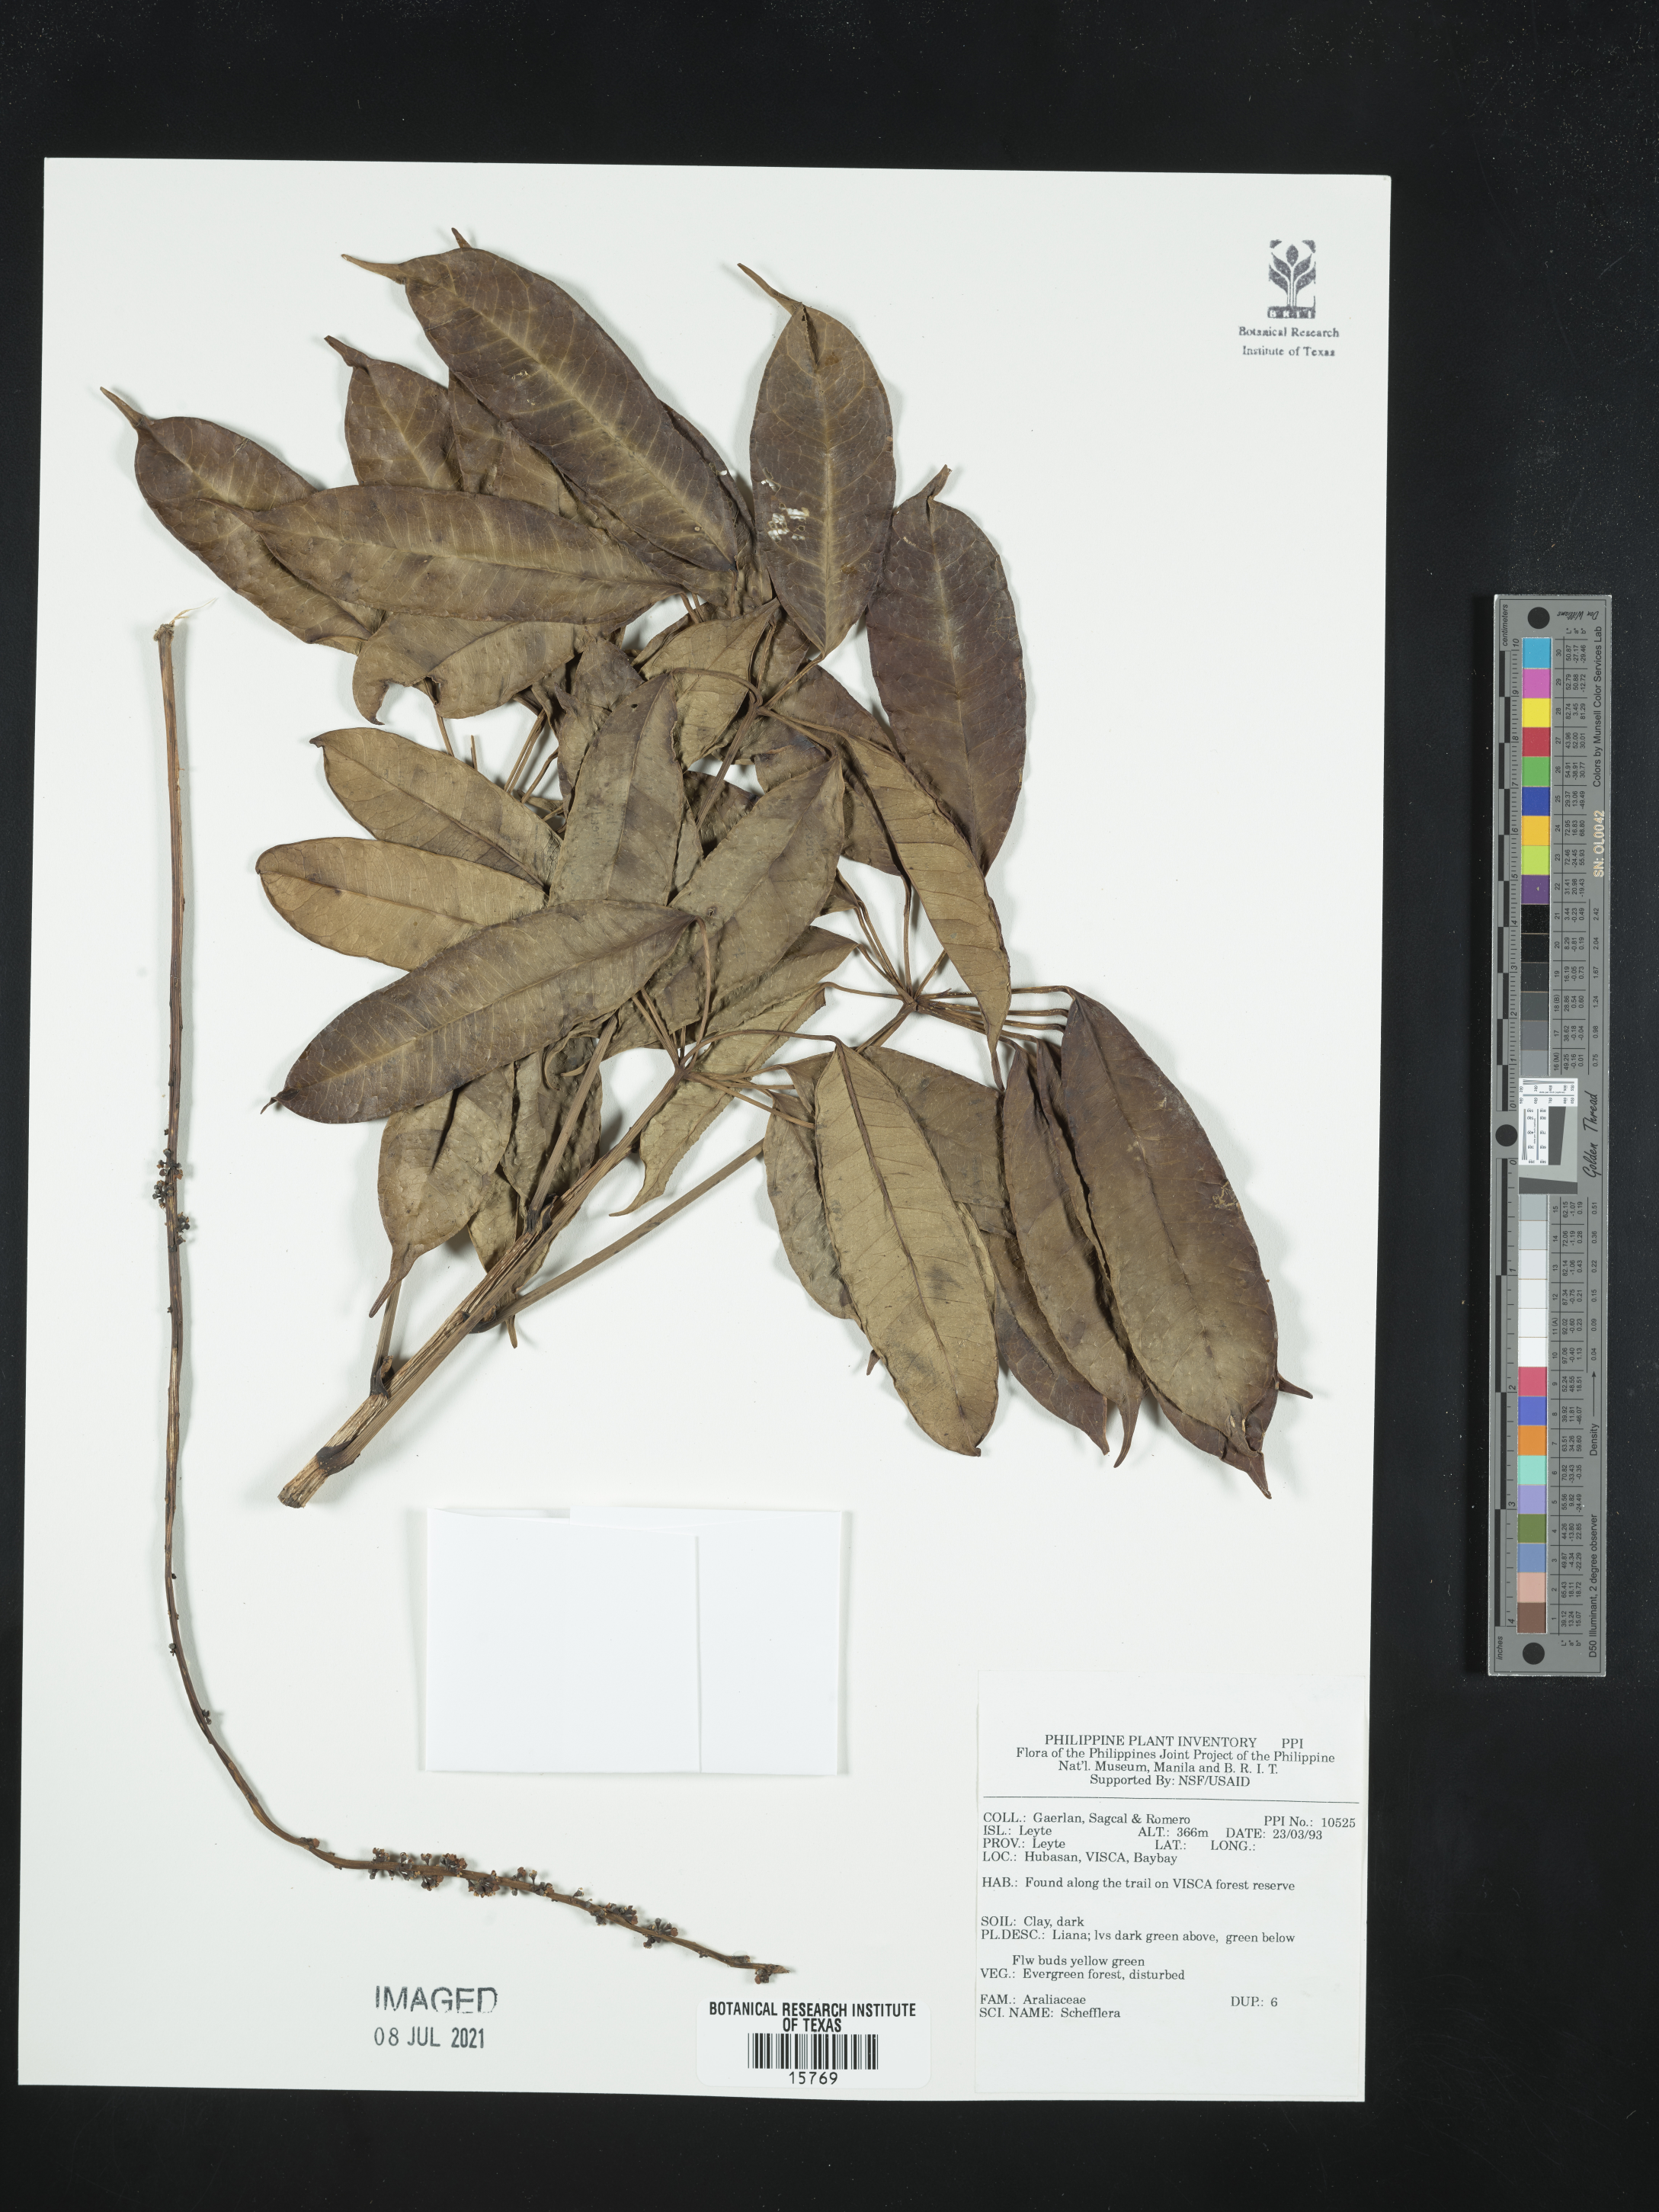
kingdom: Plantae
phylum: Tracheophyta
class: Magnoliopsida
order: Apiales
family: Araliaceae
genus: Schefflera
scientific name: Schefflera
